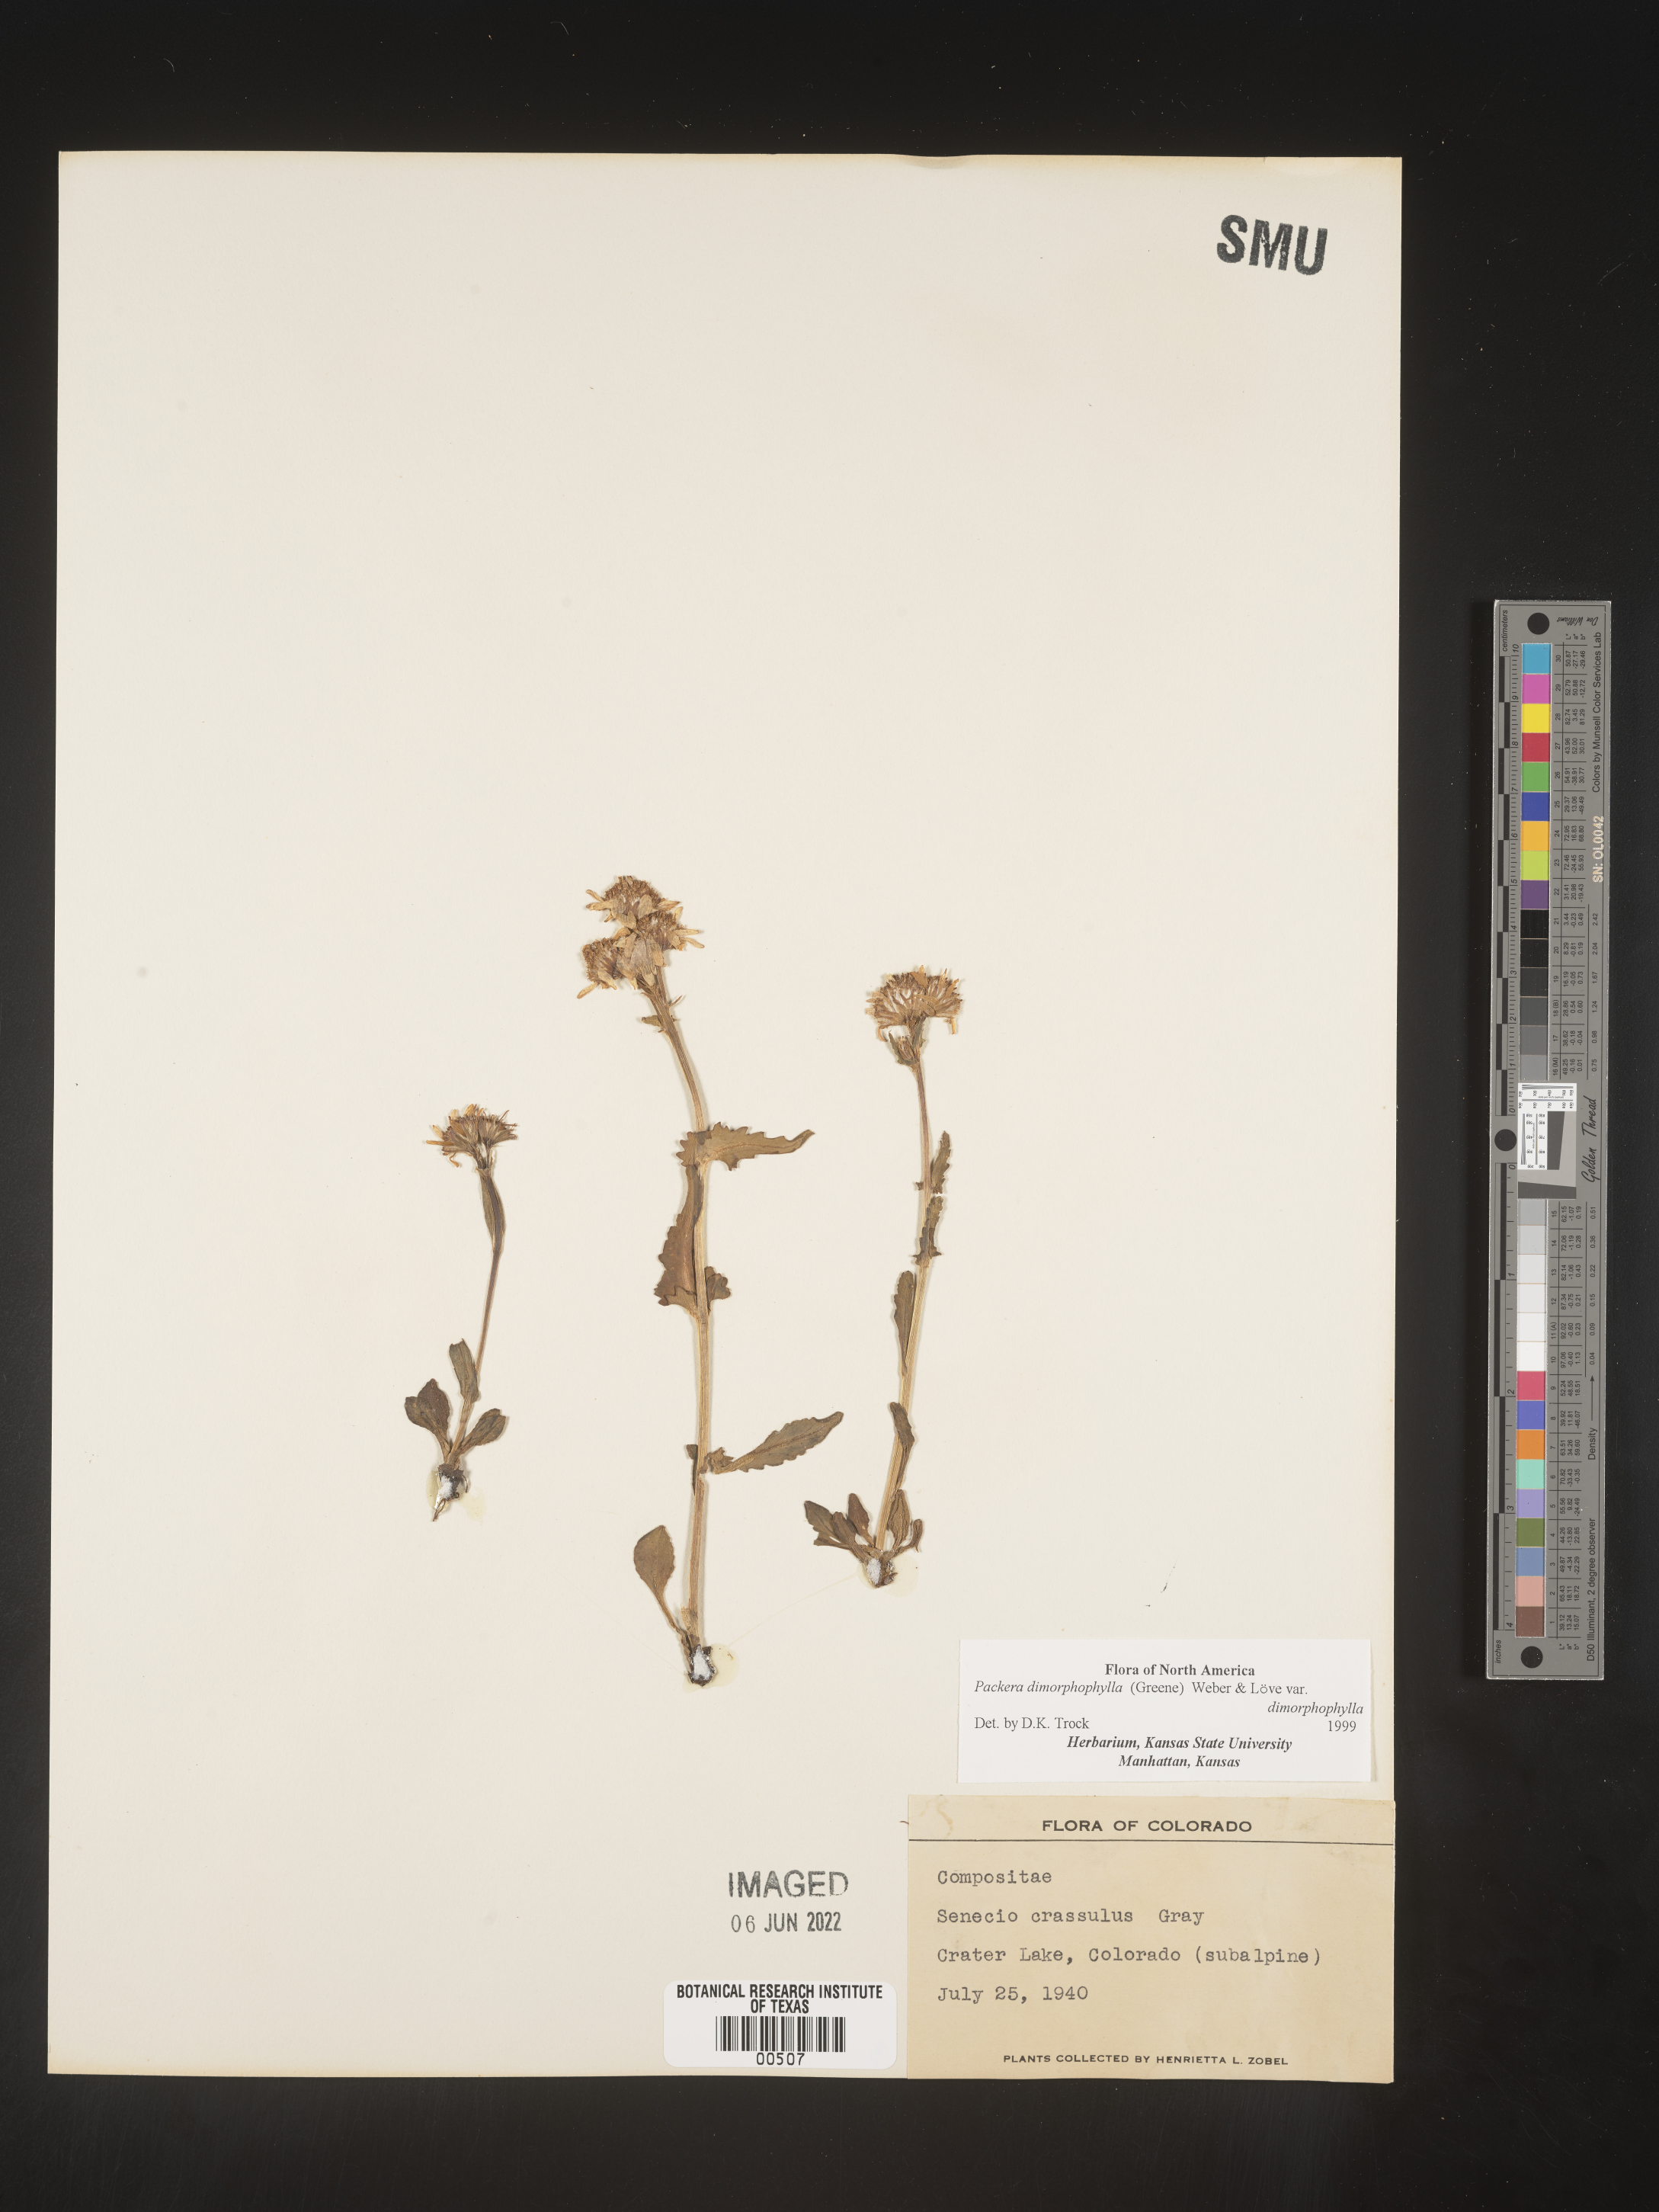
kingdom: Plantae
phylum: Tracheophyta
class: Magnoliopsida
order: Asterales
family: Asteraceae
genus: Packera
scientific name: Packera dimorphophylla
